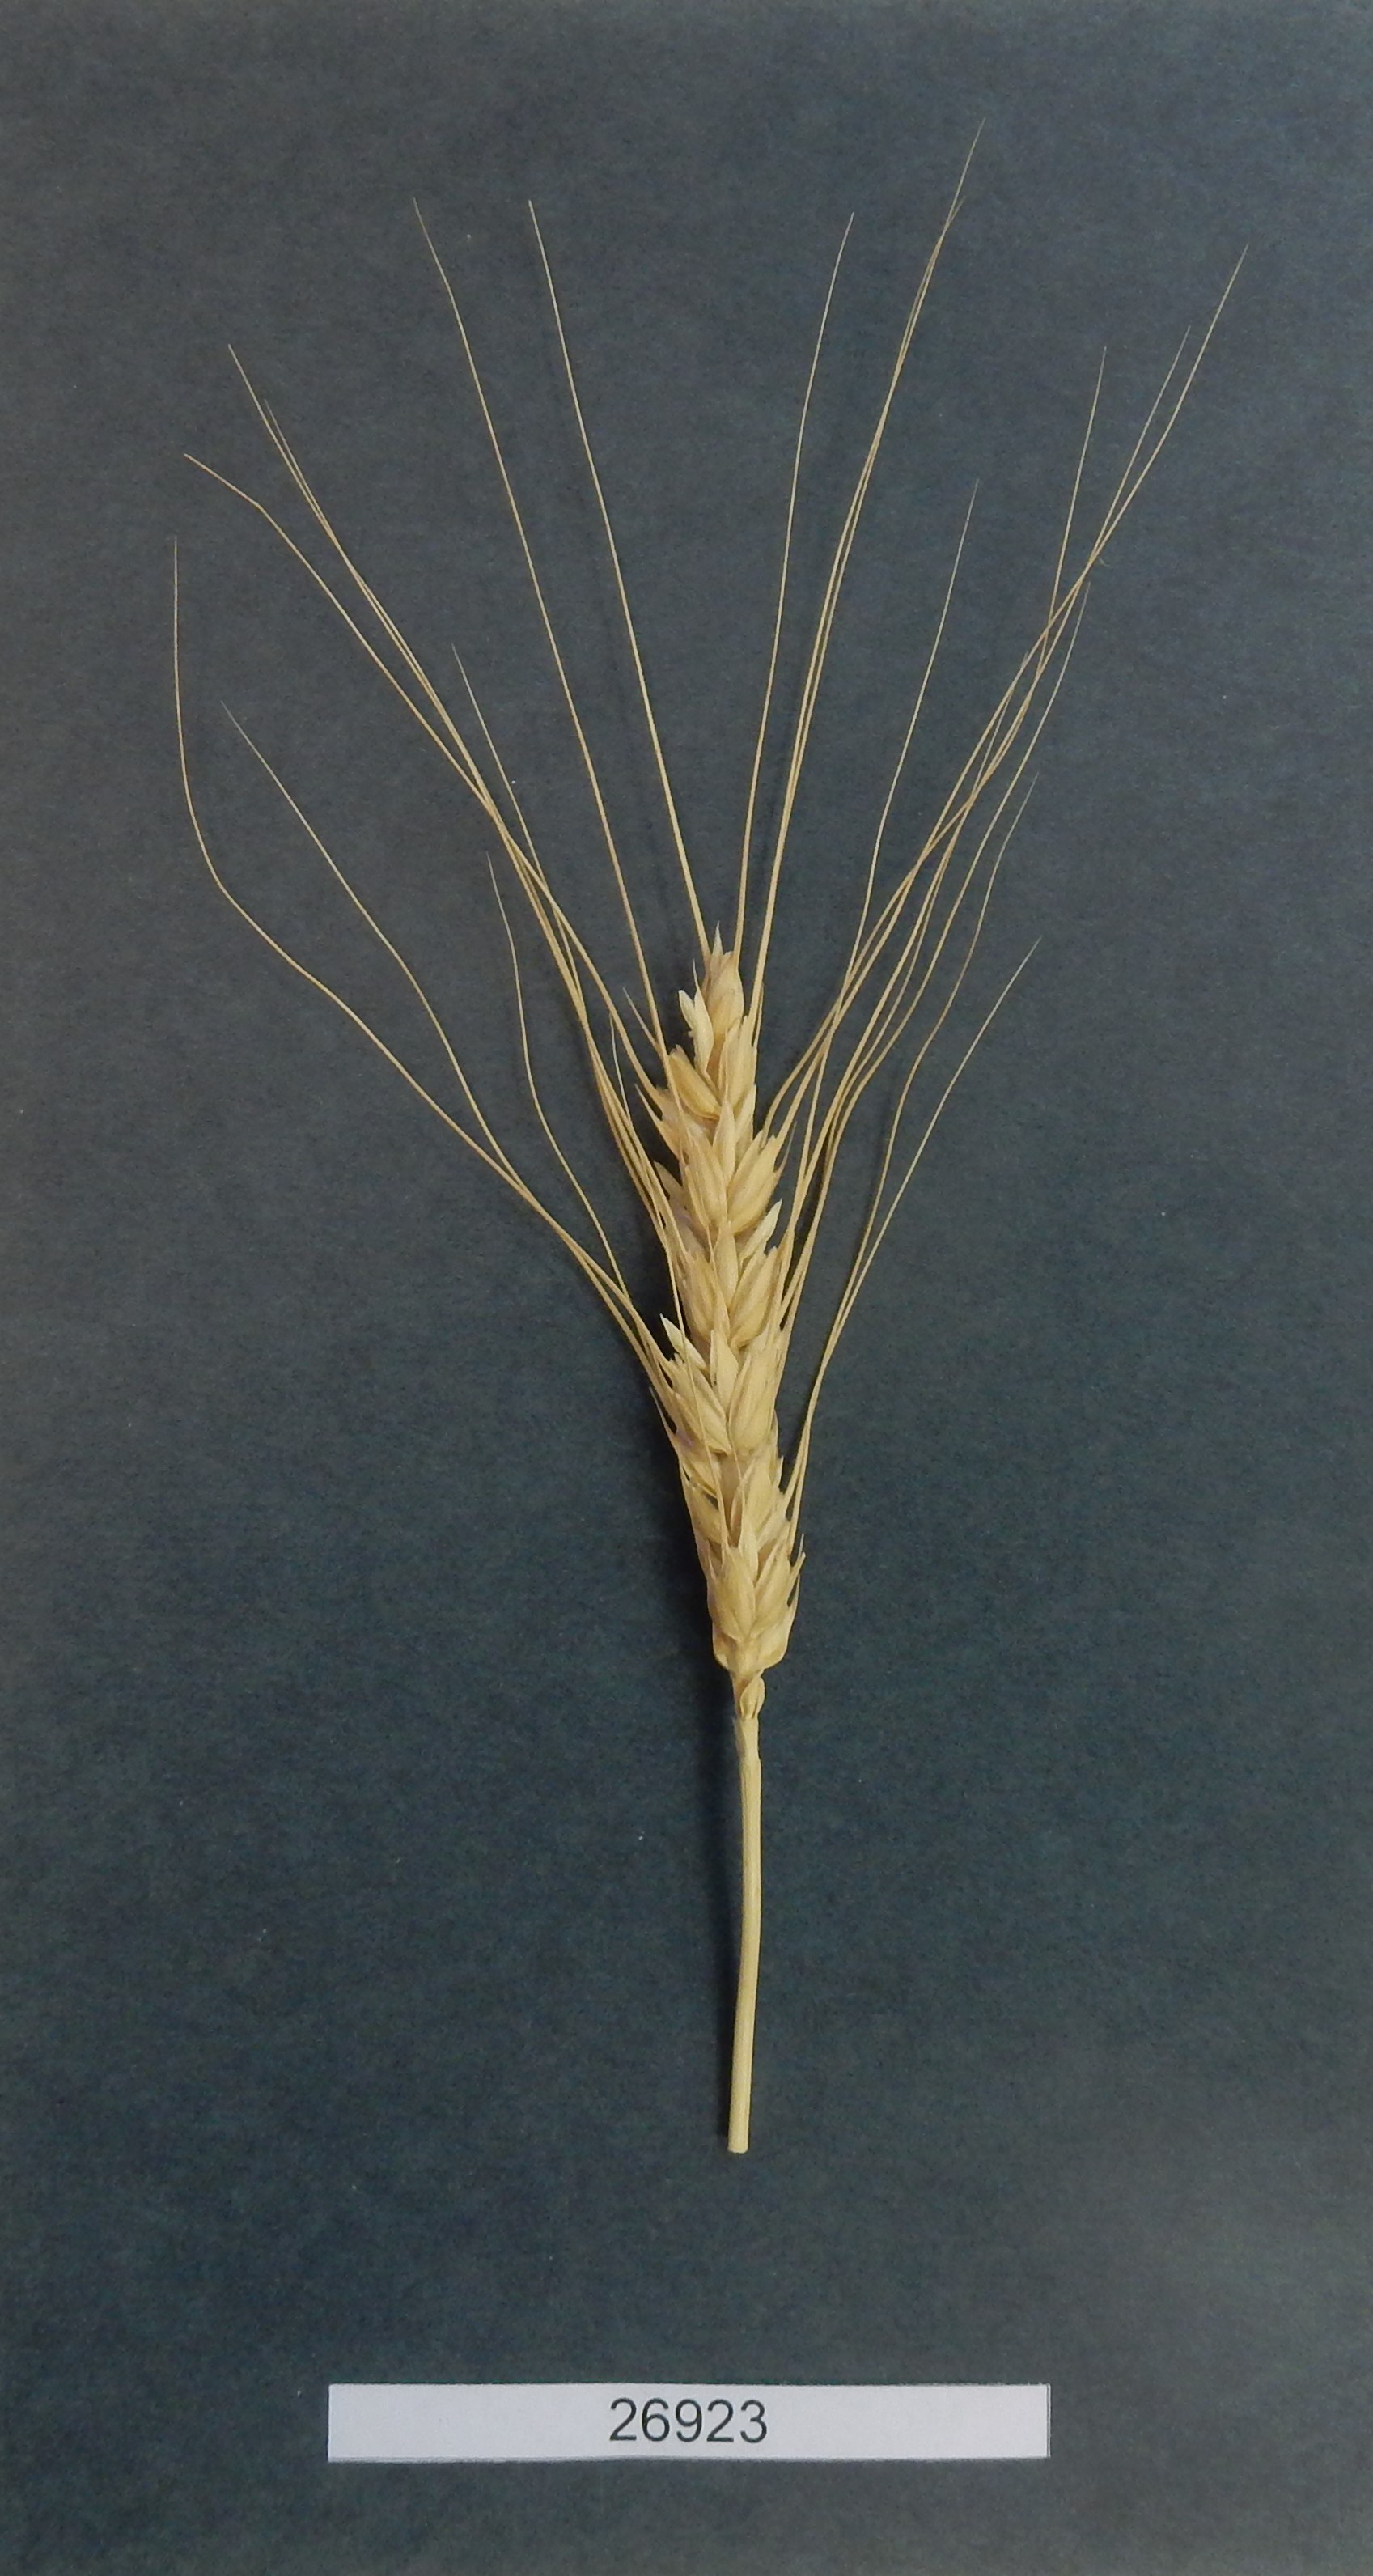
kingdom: Plantae
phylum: Tracheophyta
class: Liliopsida
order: Poales
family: Poaceae
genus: Triticum
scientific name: Triticum
